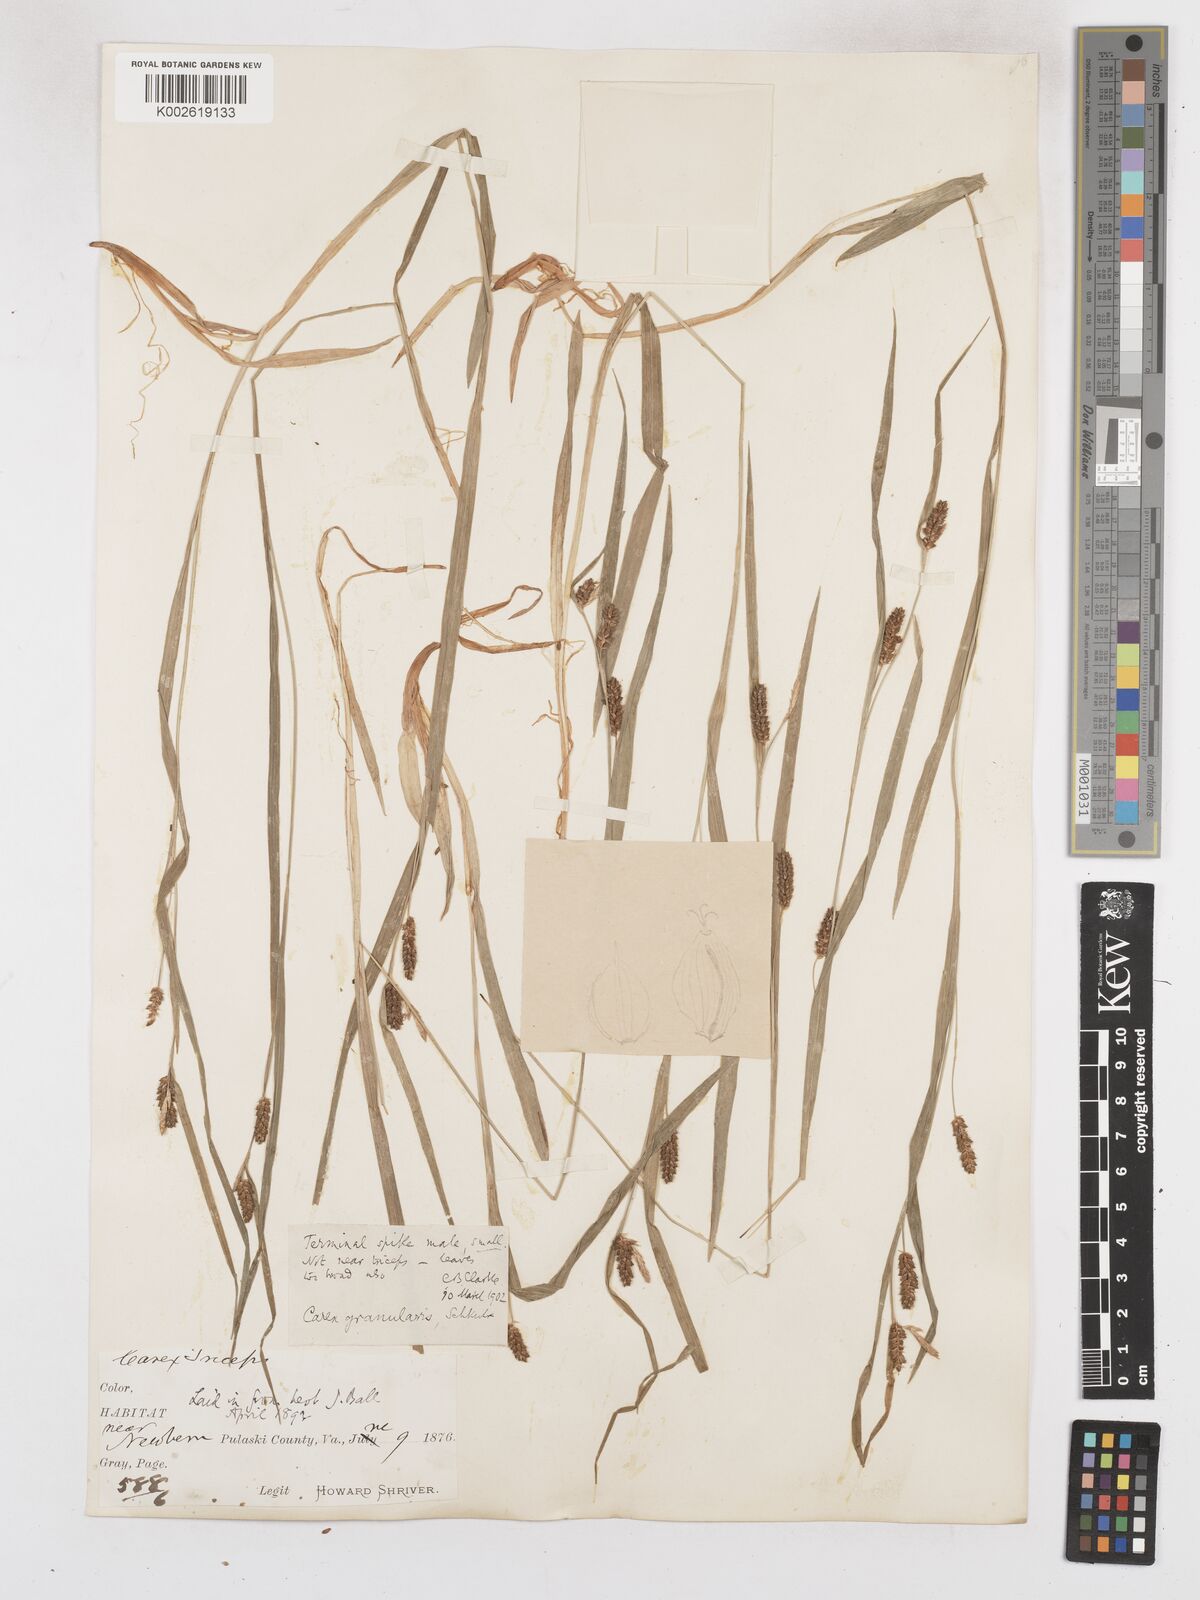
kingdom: Plantae
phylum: Tracheophyta
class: Liliopsida
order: Poales
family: Cyperaceae
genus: Carex
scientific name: Carex granularis
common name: Granular sedge
